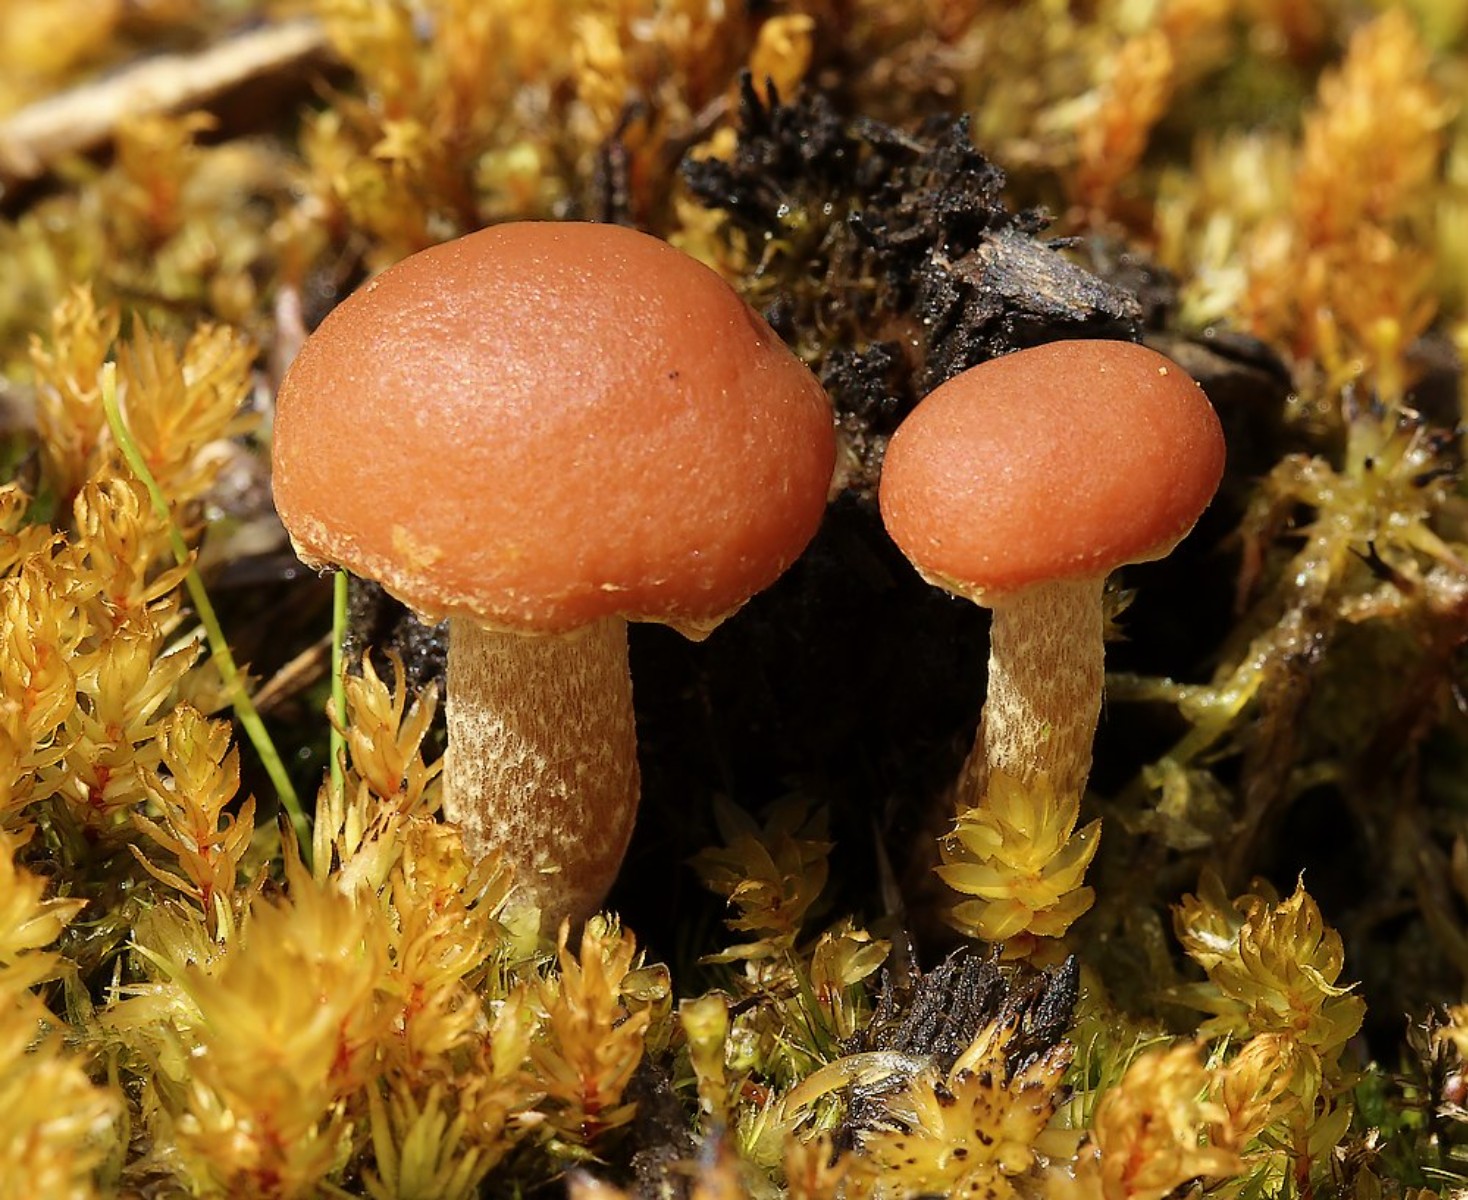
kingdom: Fungi
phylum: Basidiomycota
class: Agaricomycetes
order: Agaricales
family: Strophariaceae
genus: Bogbodia
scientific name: Bogbodia uda
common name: tørve-svovlhat
